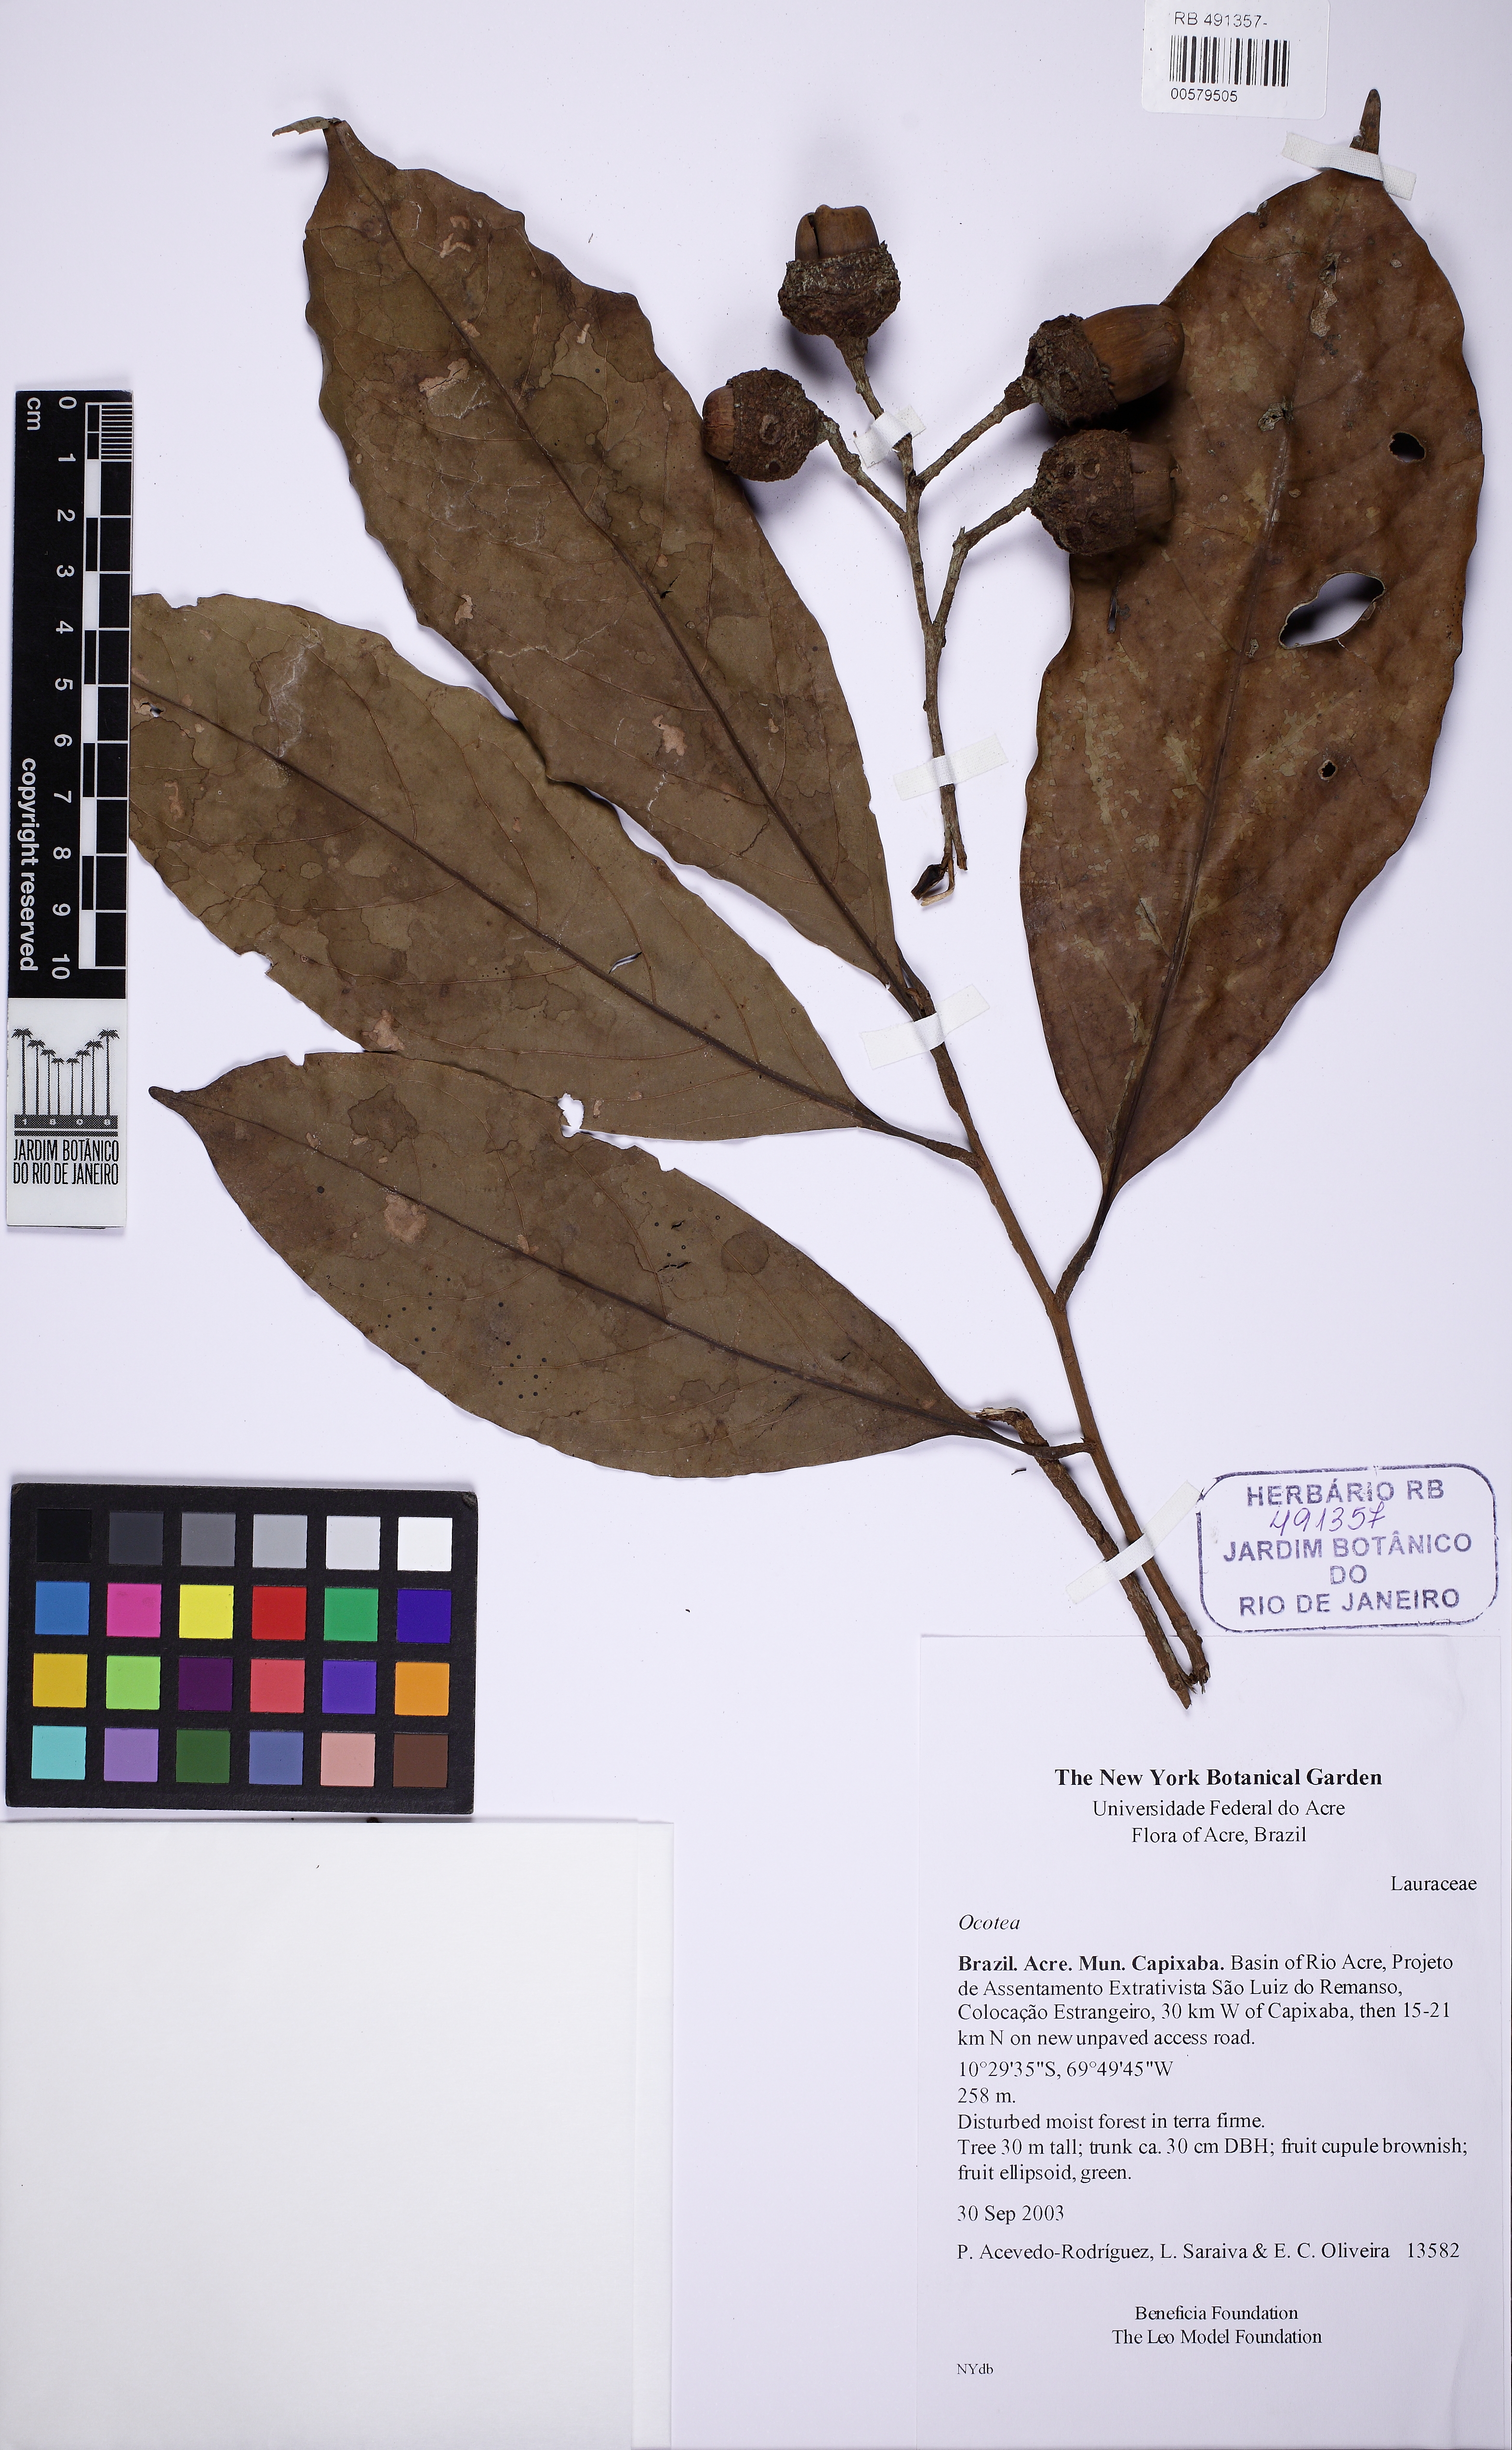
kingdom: Plantae
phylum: Tracheophyta
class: Magnoliopsida
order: Laurales
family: Lauraceae
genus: Ocotea
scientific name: Ocotea
